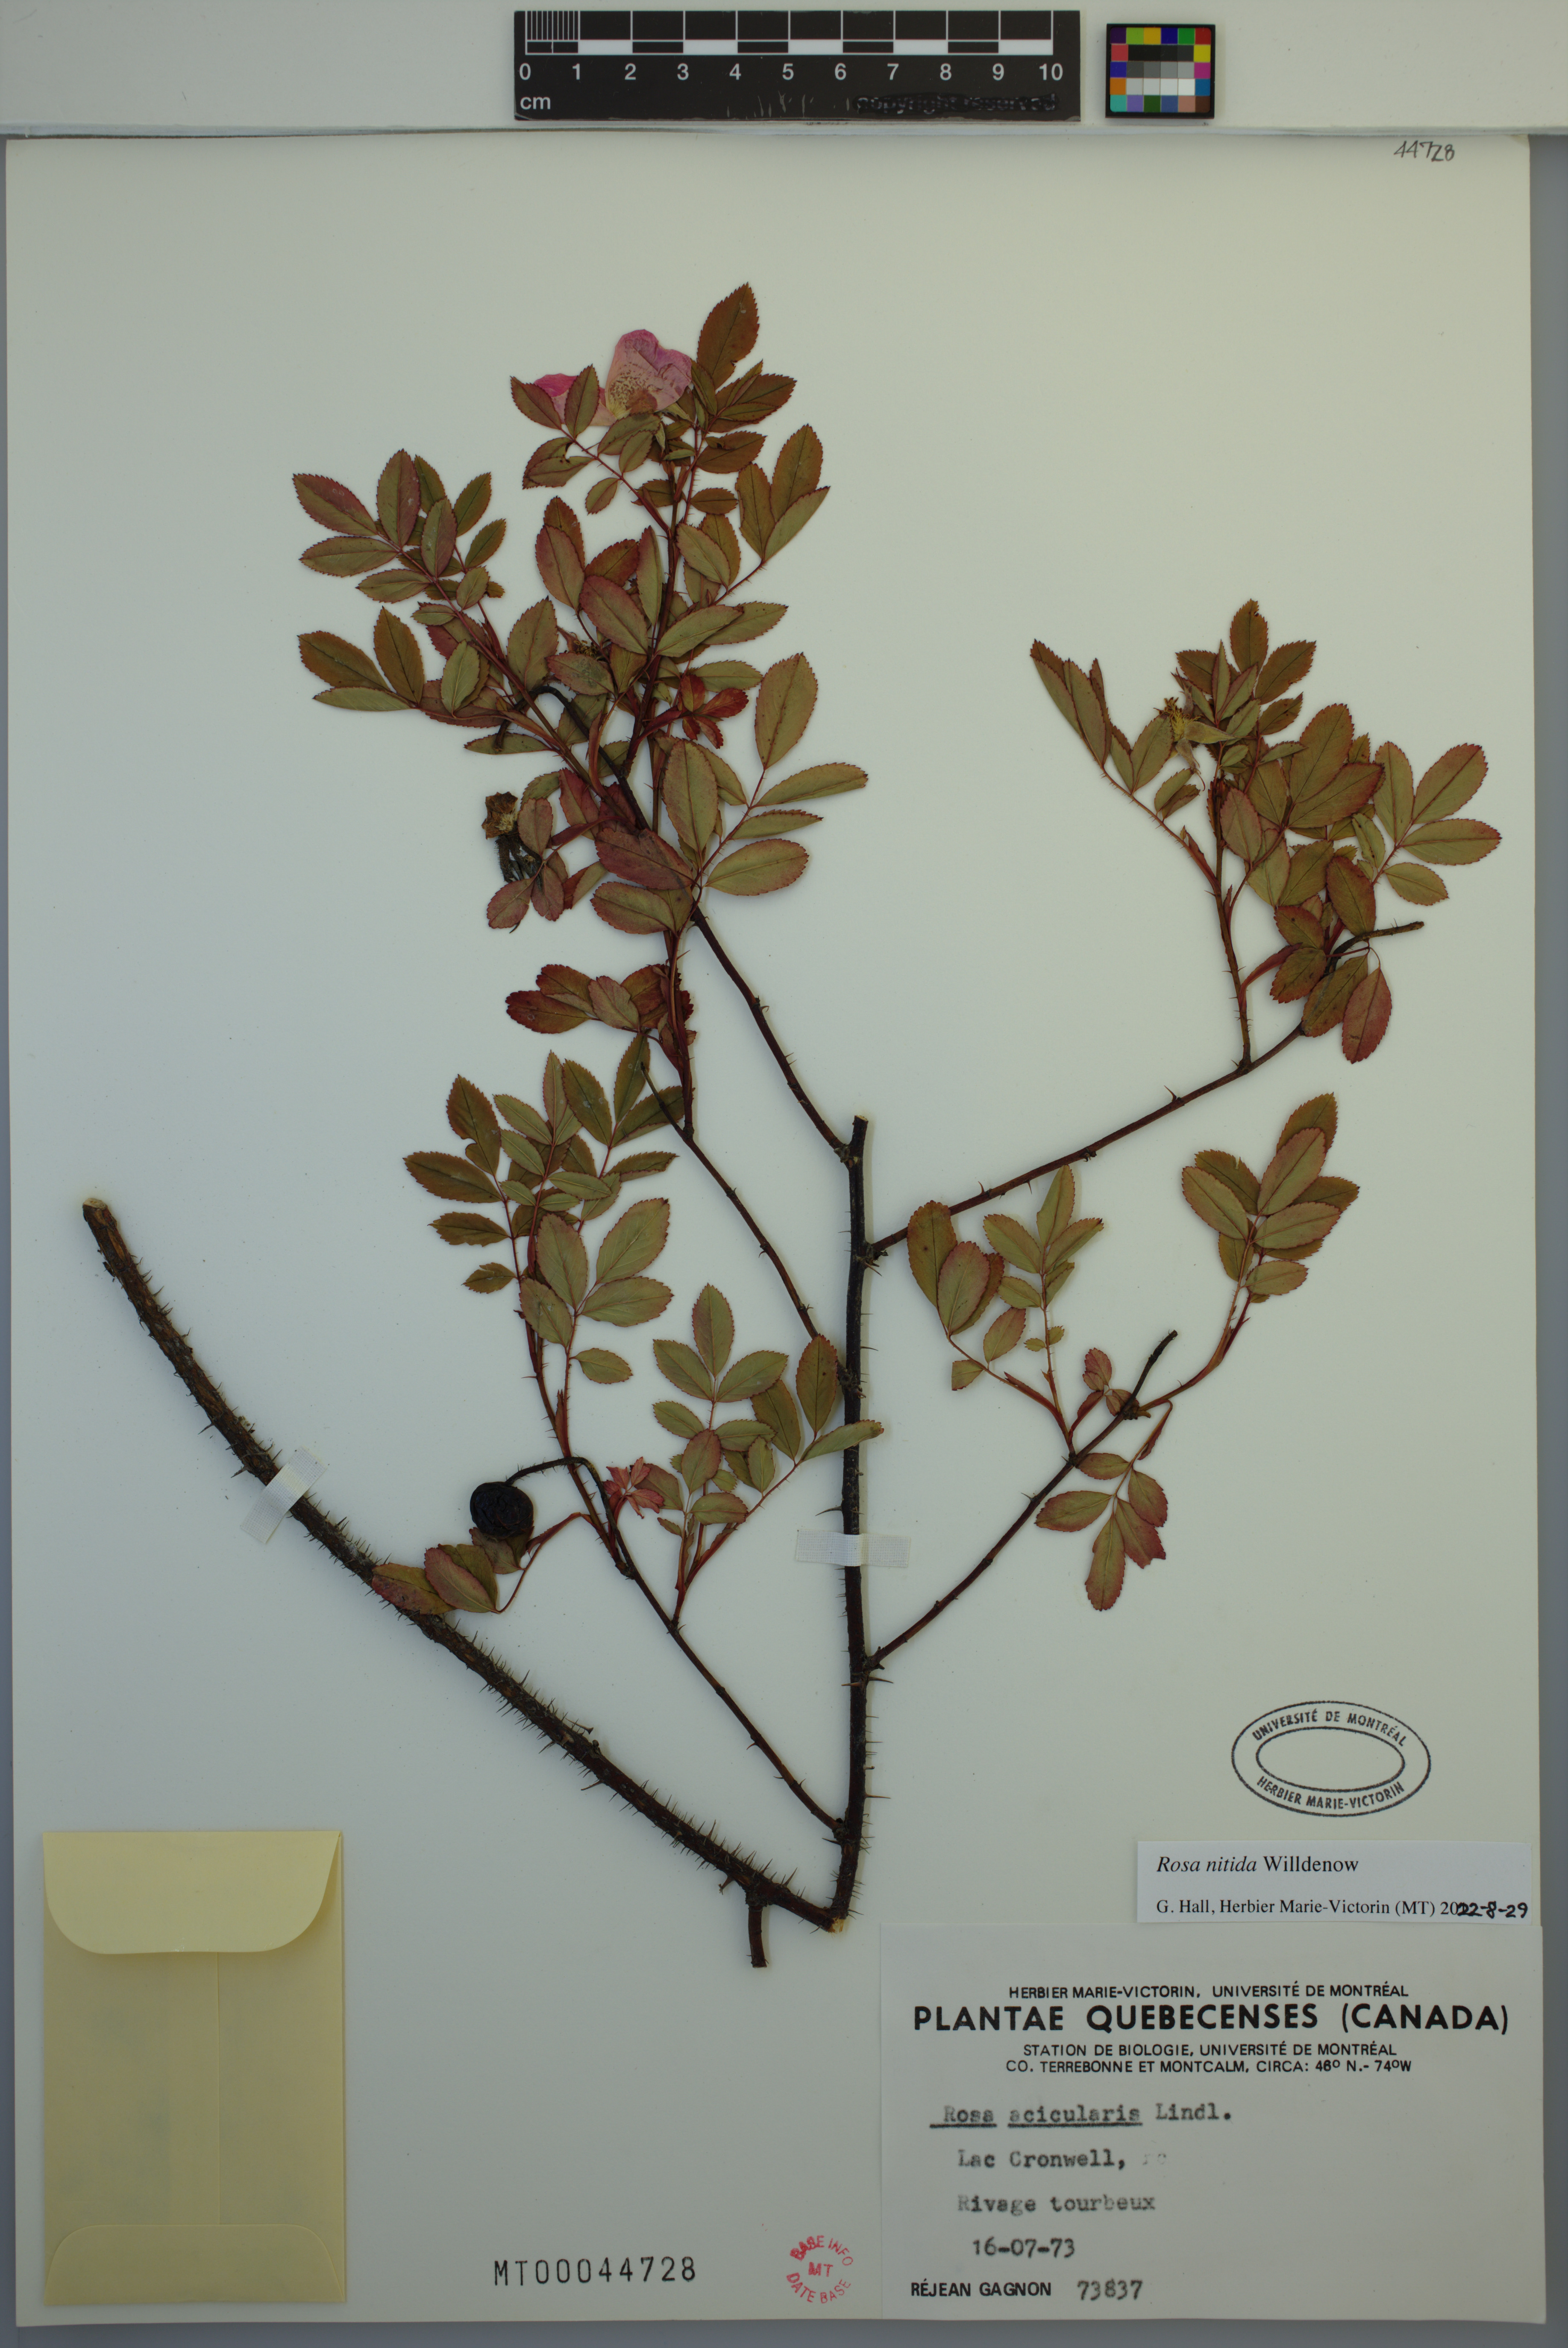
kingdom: Plantae
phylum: Tracheophyta
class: Magnoliopsida
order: Rosales
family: Rosaceae
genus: Rosa
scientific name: Rosa nitida
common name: New england rose
